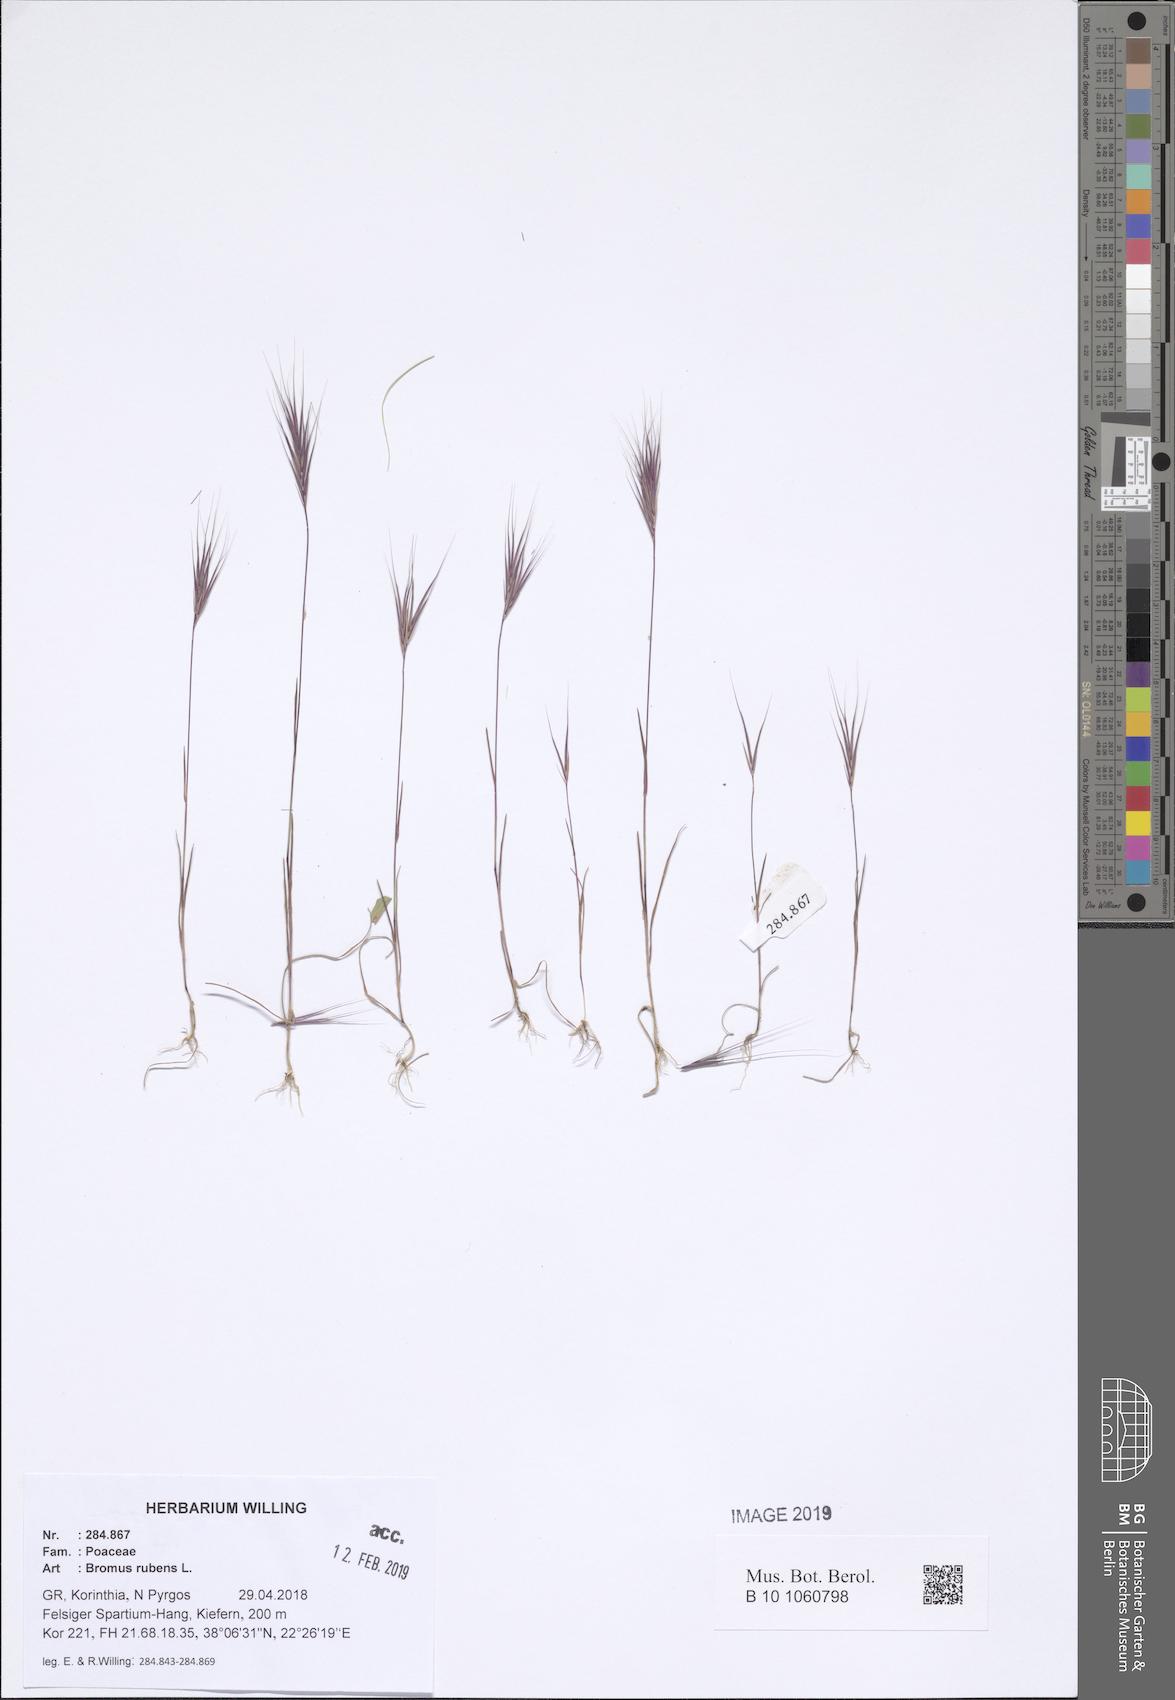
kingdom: Plantae
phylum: Tracheophyta
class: Liliopsida
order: Poales
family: Poaceae
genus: Bromus
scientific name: Bromus rubens
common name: Red brome
